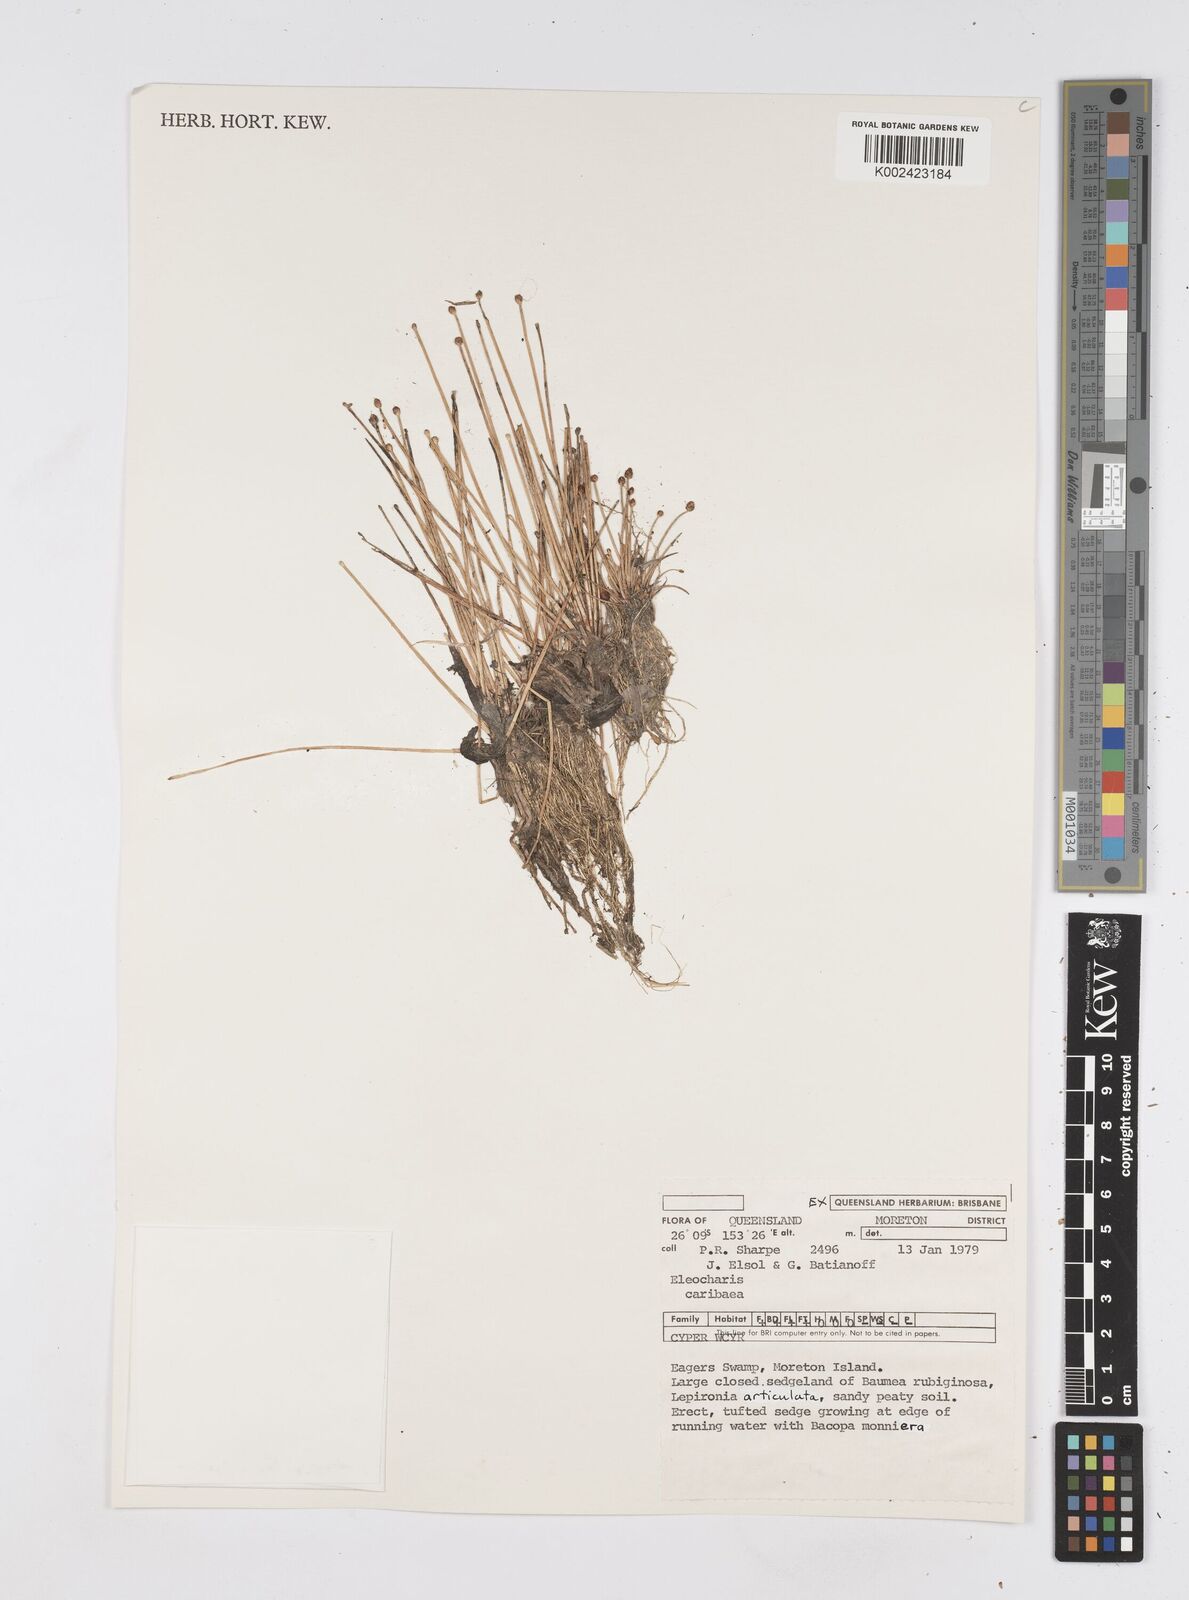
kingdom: Plantae
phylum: Tracheophyta
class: Liliopsida
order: Poales
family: Cyperaceae
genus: Eleocharis
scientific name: Eleocharis geniculata
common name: Canada spikesedge
